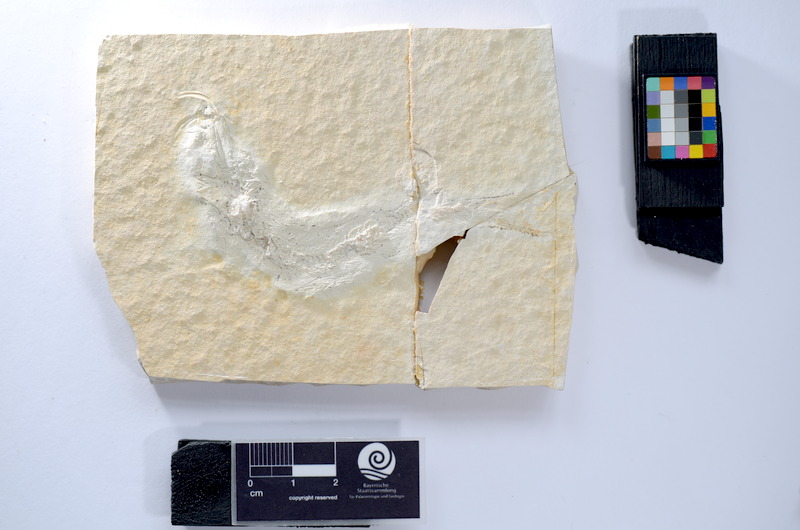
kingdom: Animalia
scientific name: Animalia
